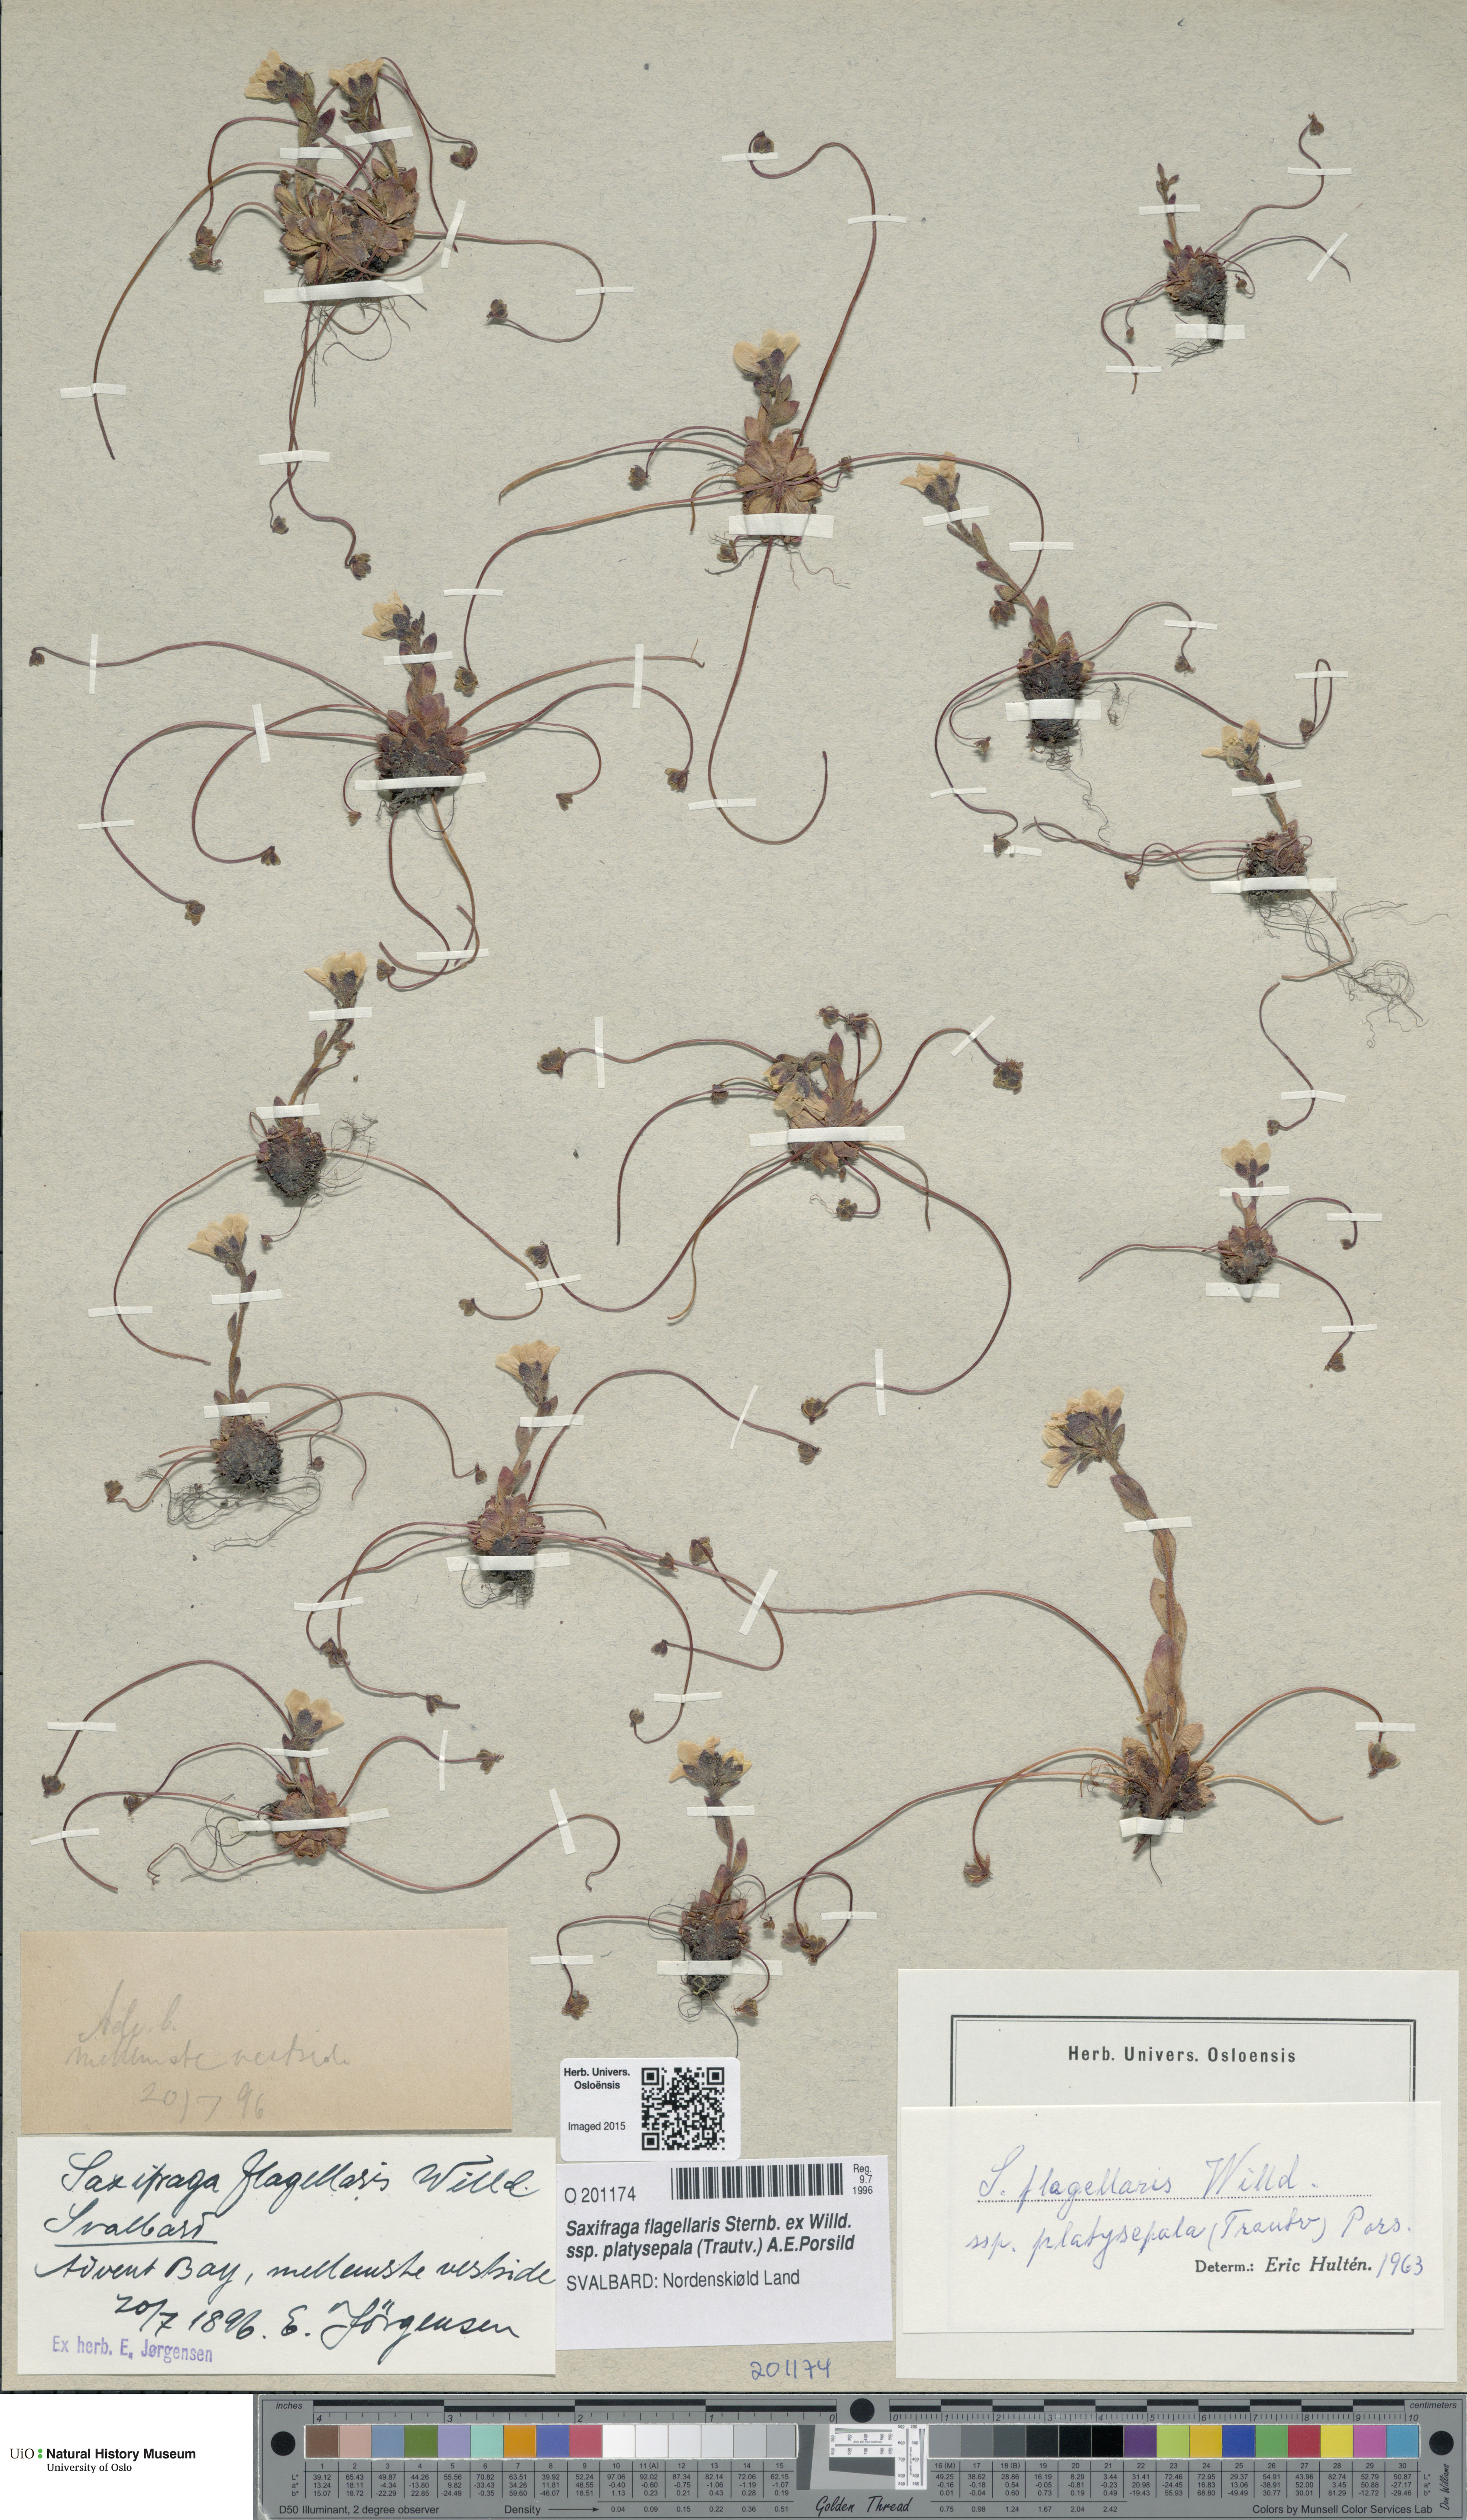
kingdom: Plantae
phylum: Tracheophyta
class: Magnoliopsida
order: Saxifragales
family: Saxifragaceae
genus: Saxifraga
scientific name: Saxifraga platysepala
